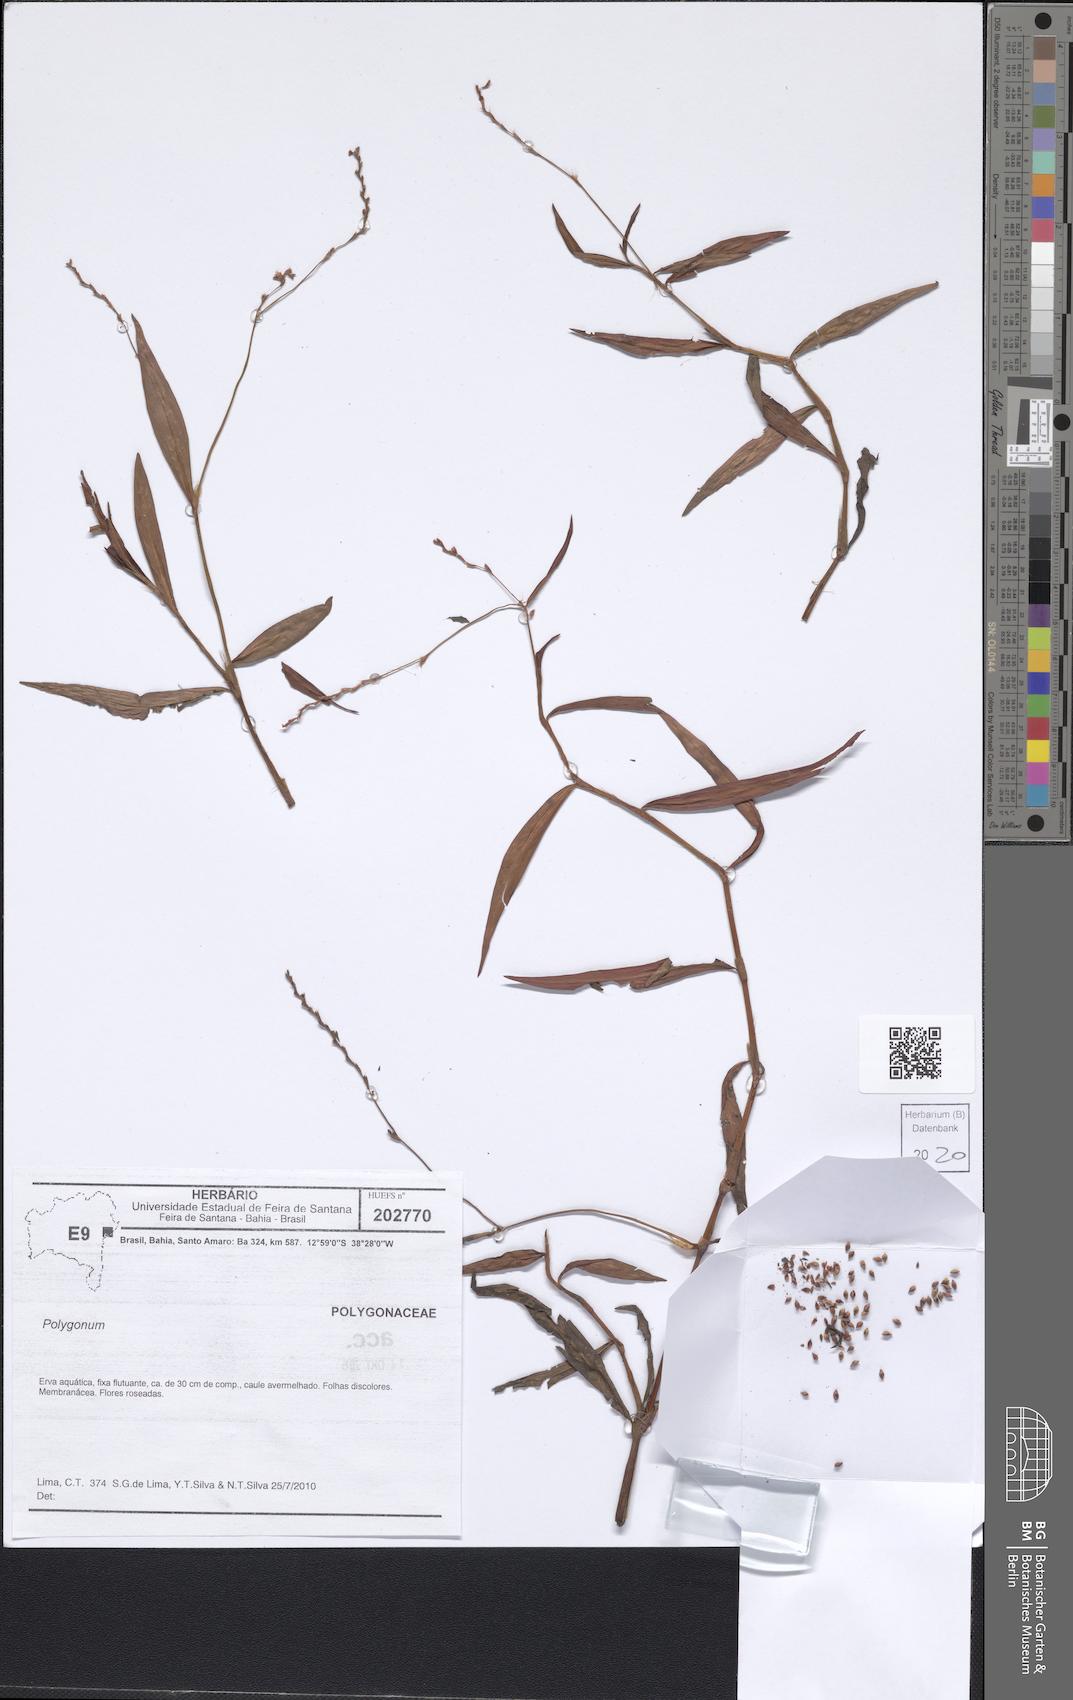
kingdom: Plantae
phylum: Tracheophyta
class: Magnoliopsida
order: Caryophyllales
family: Polygonaceae
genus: Polygonum
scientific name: Polygonum
